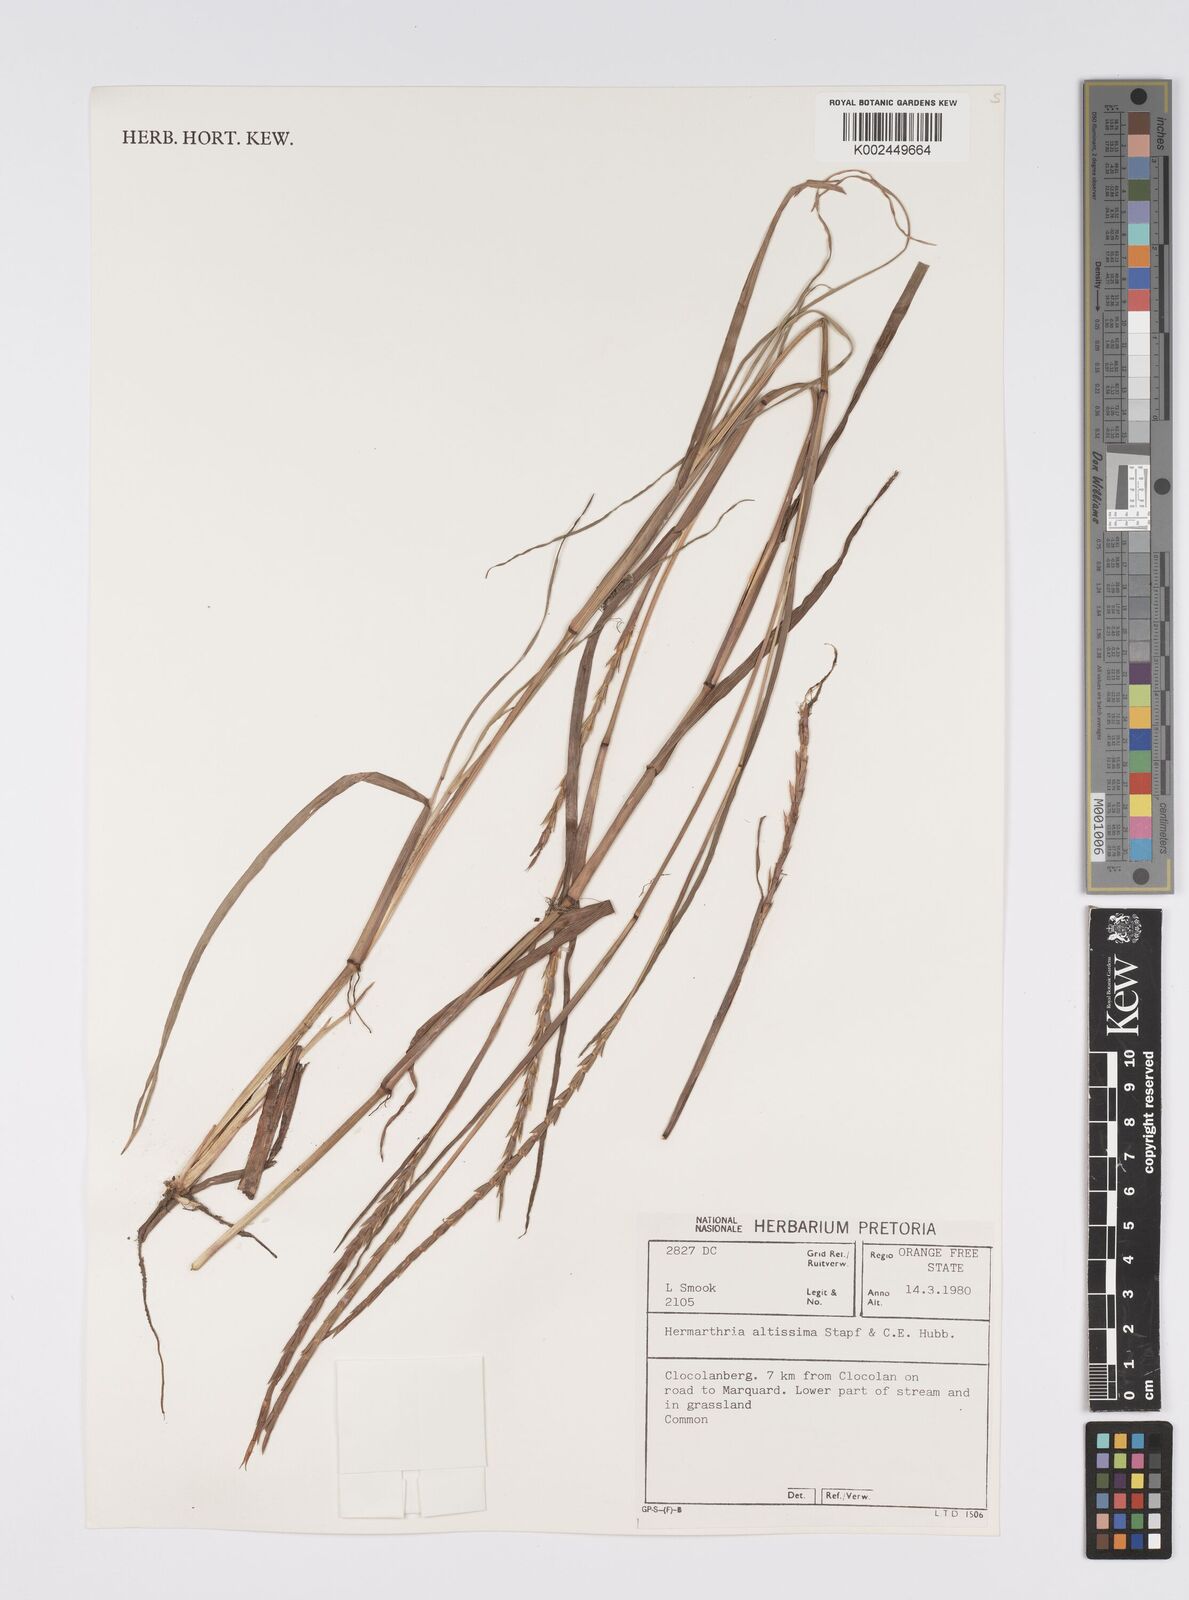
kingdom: Plantae
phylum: Tracheophyta
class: Liliopsida
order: Poales
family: Poaceae
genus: Hemarthria
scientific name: Hemarthria altissima
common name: African jointgrass
